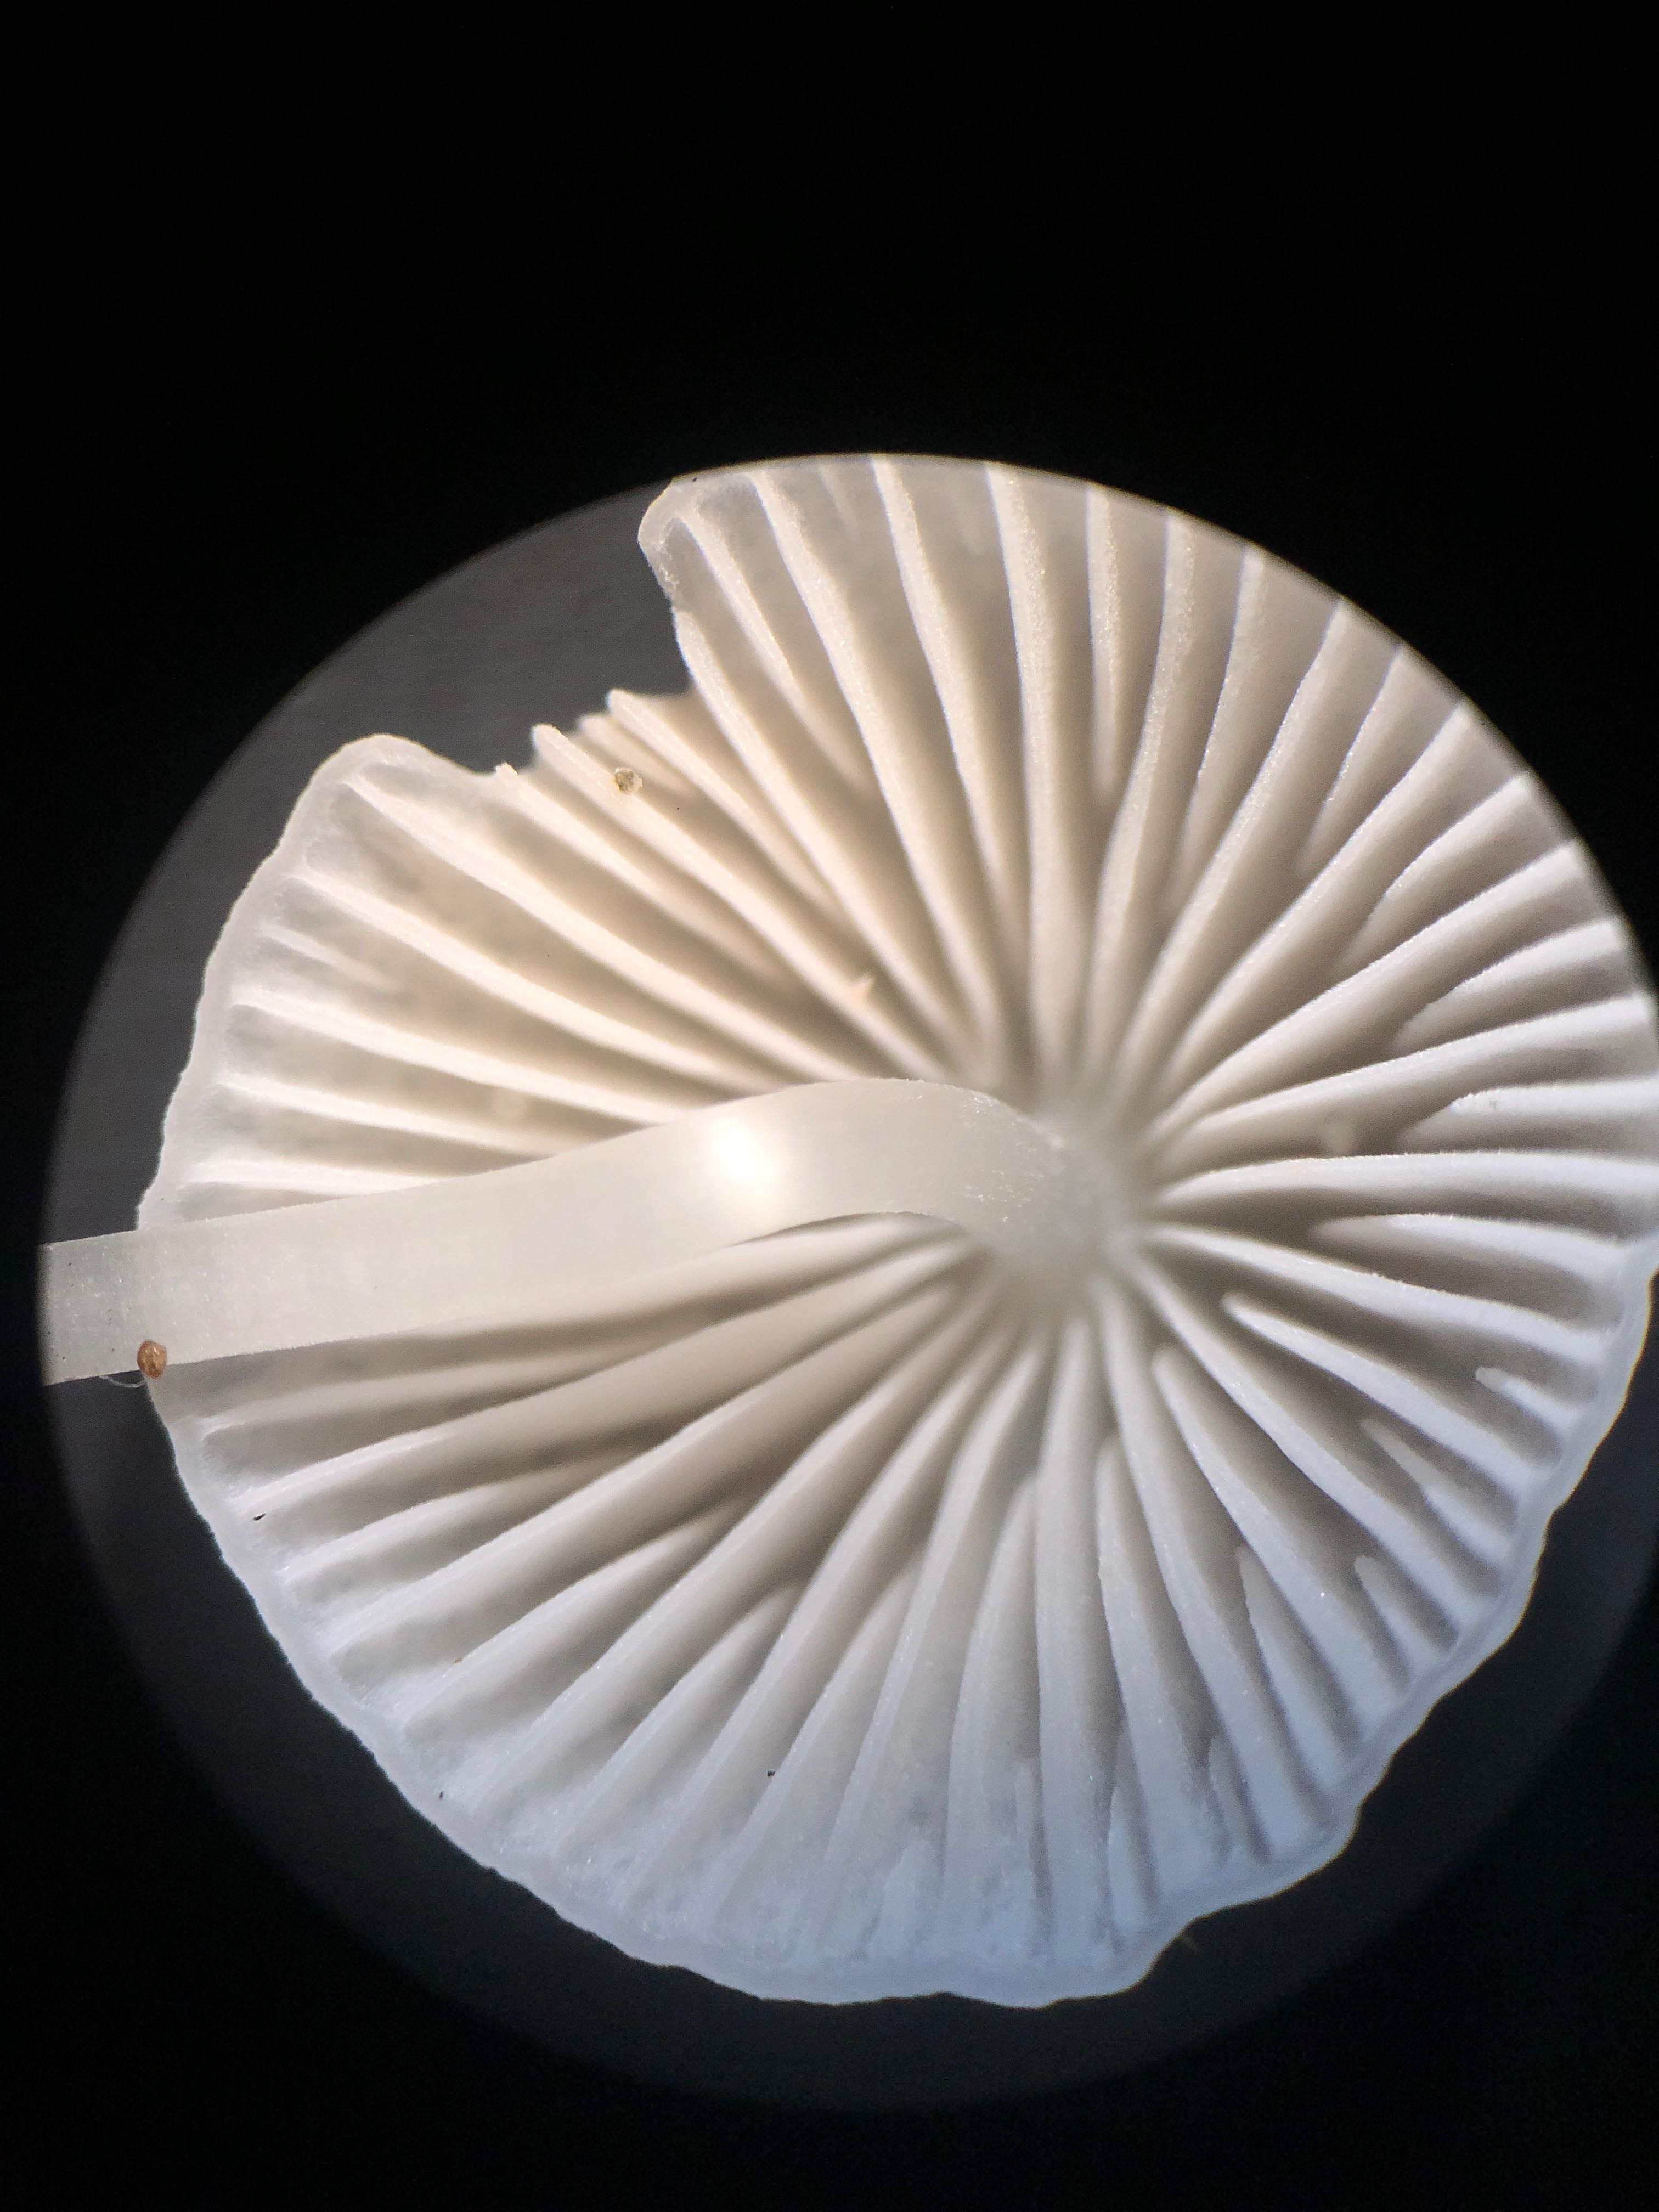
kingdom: Fungi
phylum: Basidiomycota
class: Agaricomycetes
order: Agaricales
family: Mycenaceae
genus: Mycena
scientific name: Mycena vitilis
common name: blankstokket huesvamp
